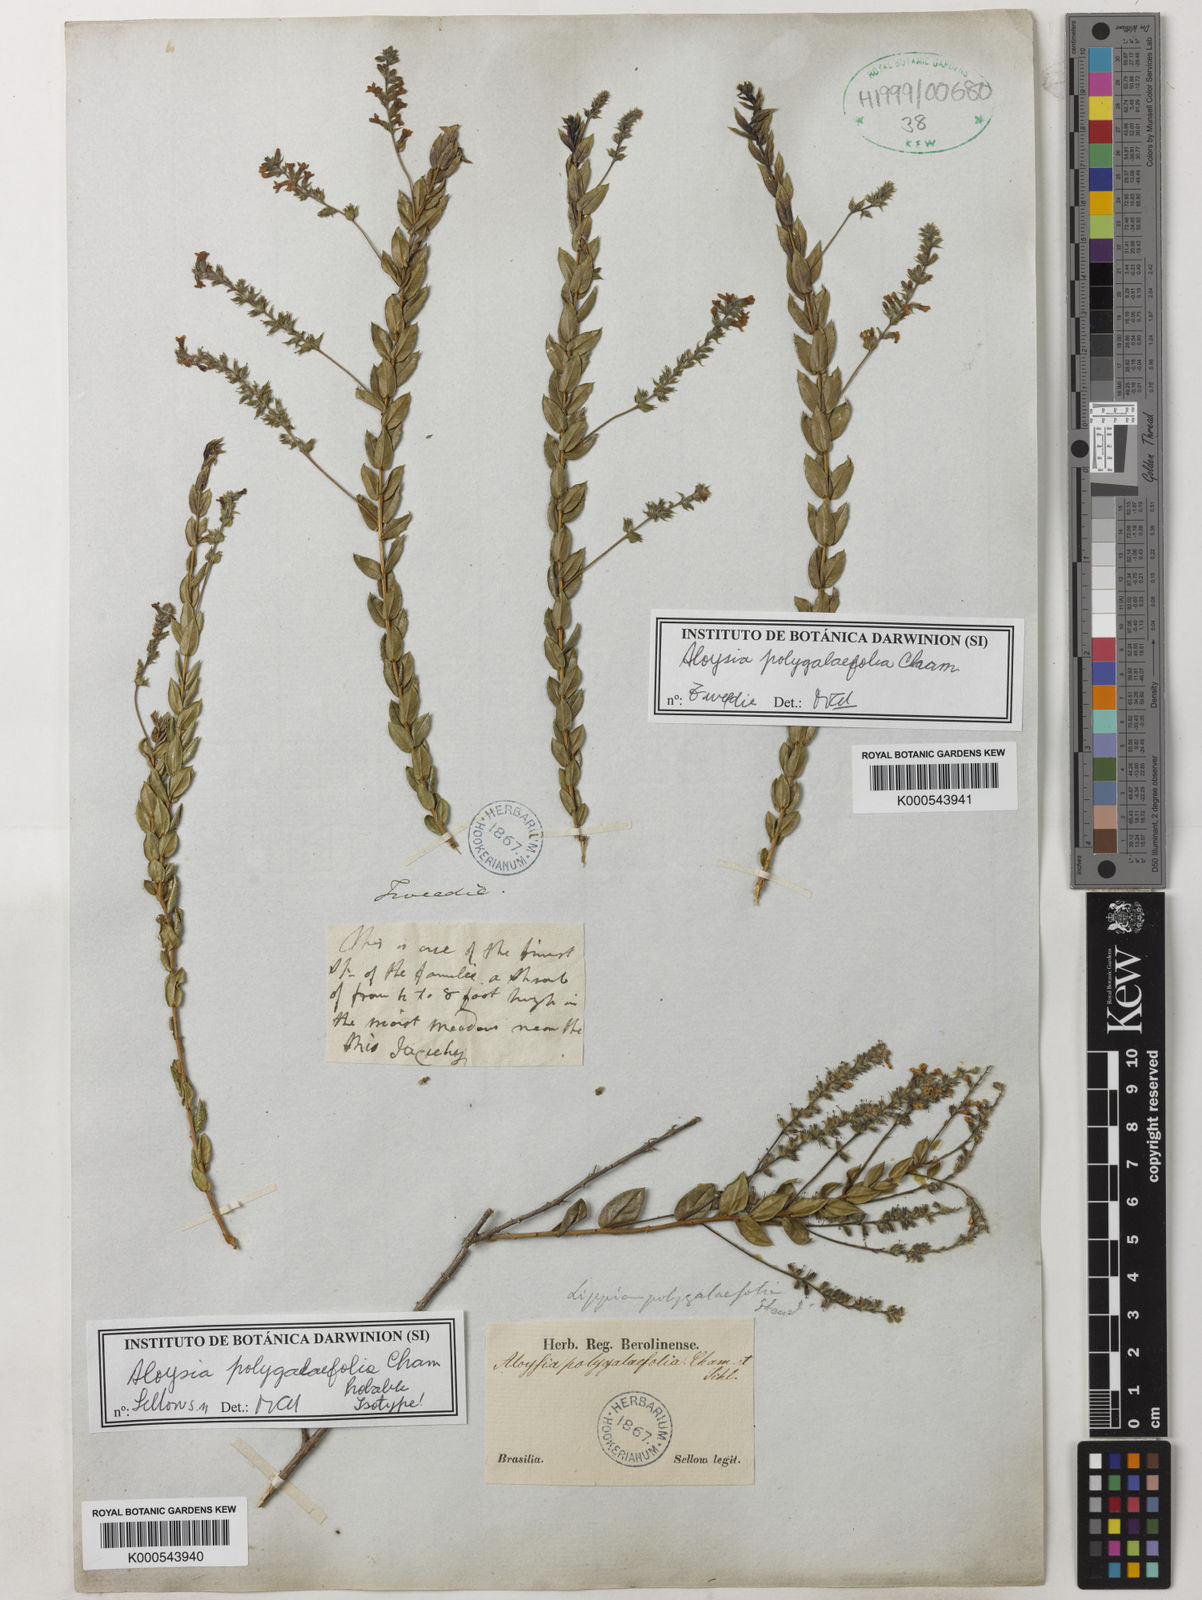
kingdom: Plantae
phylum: Tracheophyta
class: Magnoliopsida
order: Lamiales
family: Verbenaceae
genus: Aloysia
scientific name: Aloysia polygalifolia
